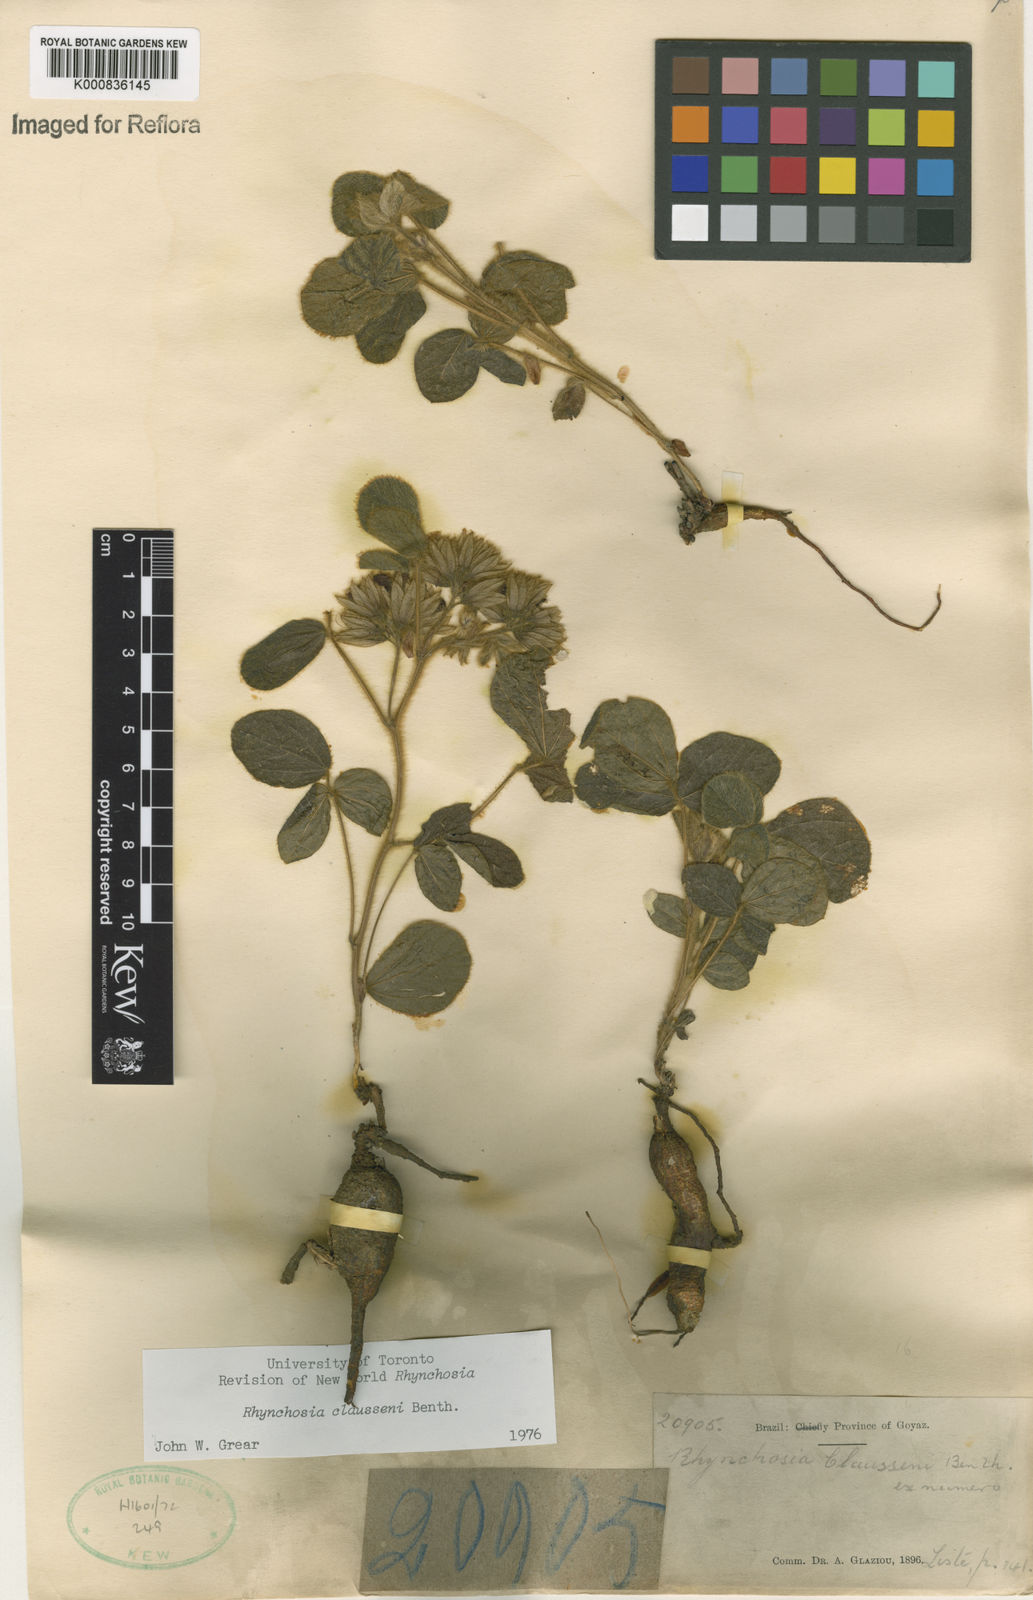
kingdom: Plantae
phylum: Tracheophyta
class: Magnoliopsida
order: Fabales
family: Fabaceae
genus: Rhynchosia
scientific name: Rhynchosia claussenii
